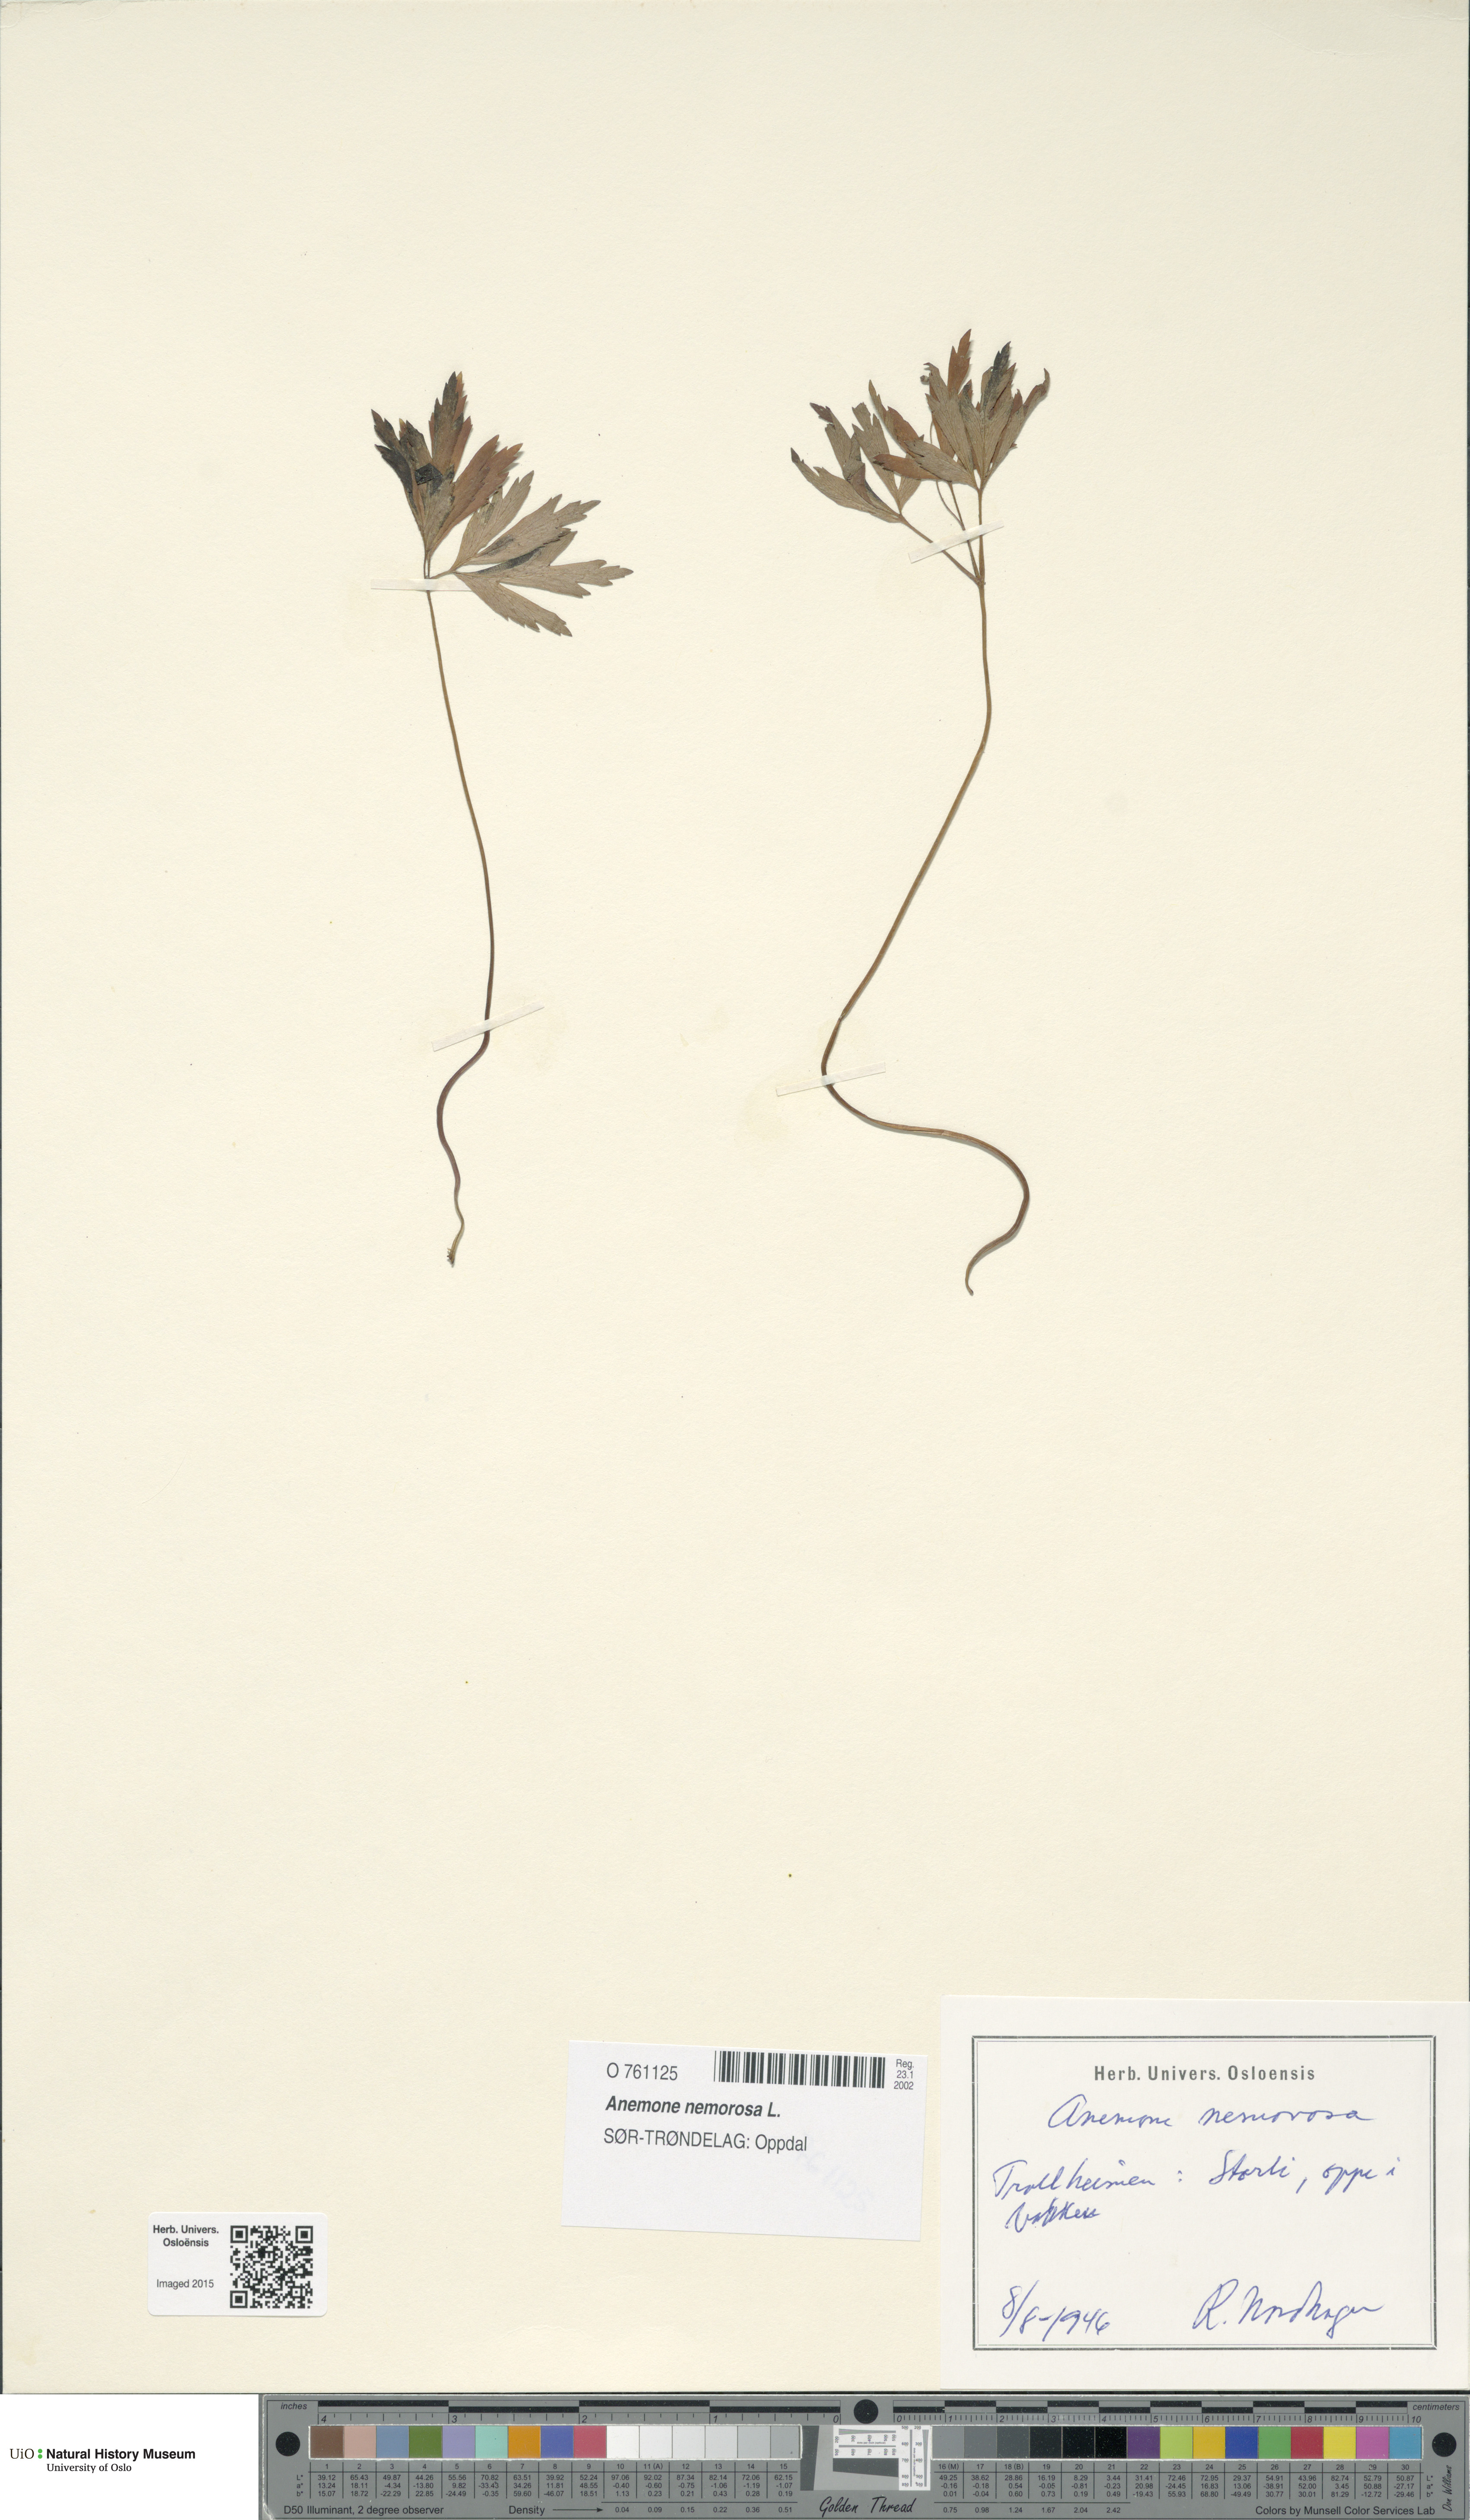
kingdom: Plantae
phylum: Tracheophyta
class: Magnoliopsida
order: Ranunculales
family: Ranunculaceae
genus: Anemone
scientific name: Anemone nemorosa
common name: Wood anemone
